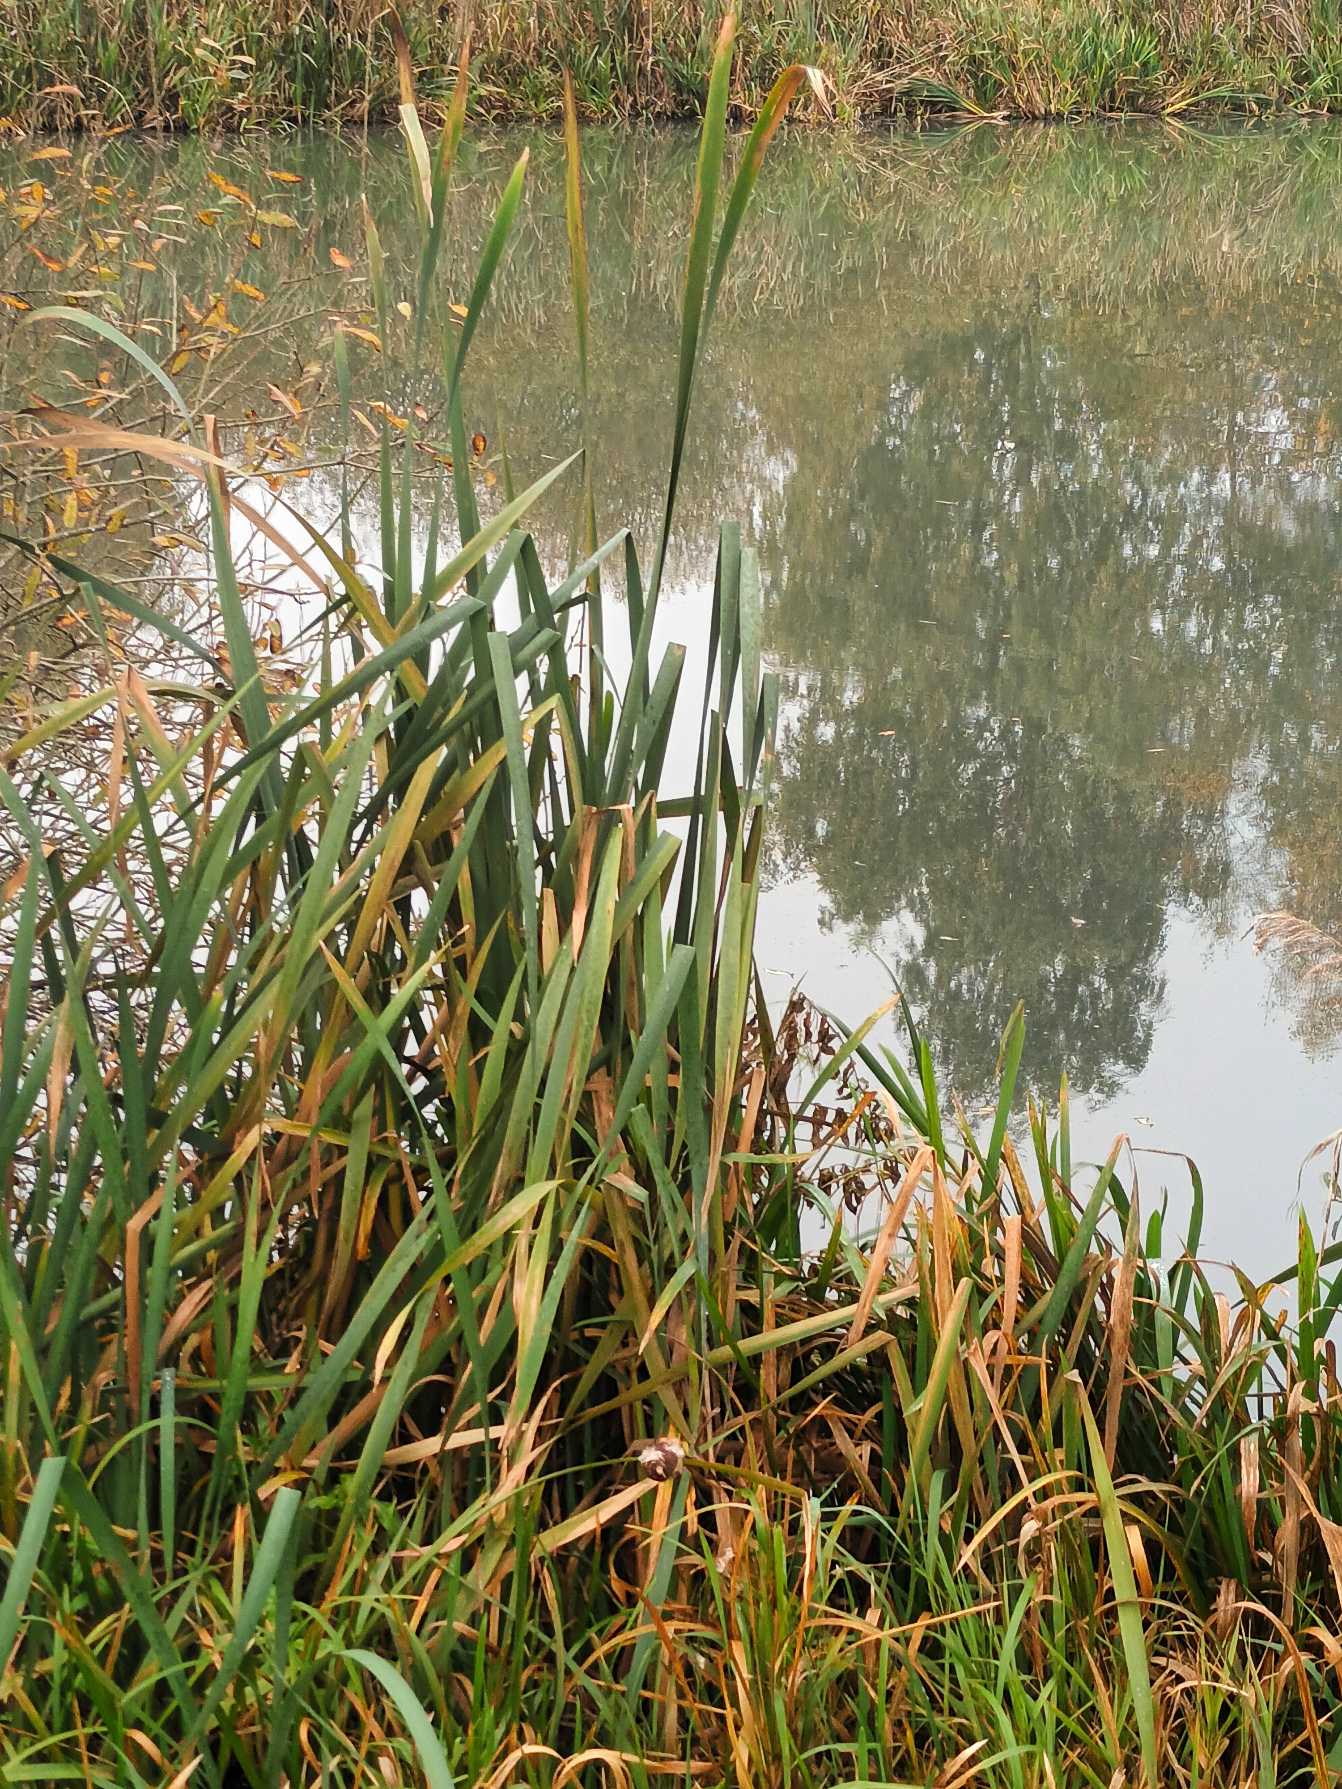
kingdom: Plantae
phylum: Tracheophyta
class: Liliopsida
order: Poales
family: Typhaceae
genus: Typha
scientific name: Typha latifolia
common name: Bredbladet dunhammer
